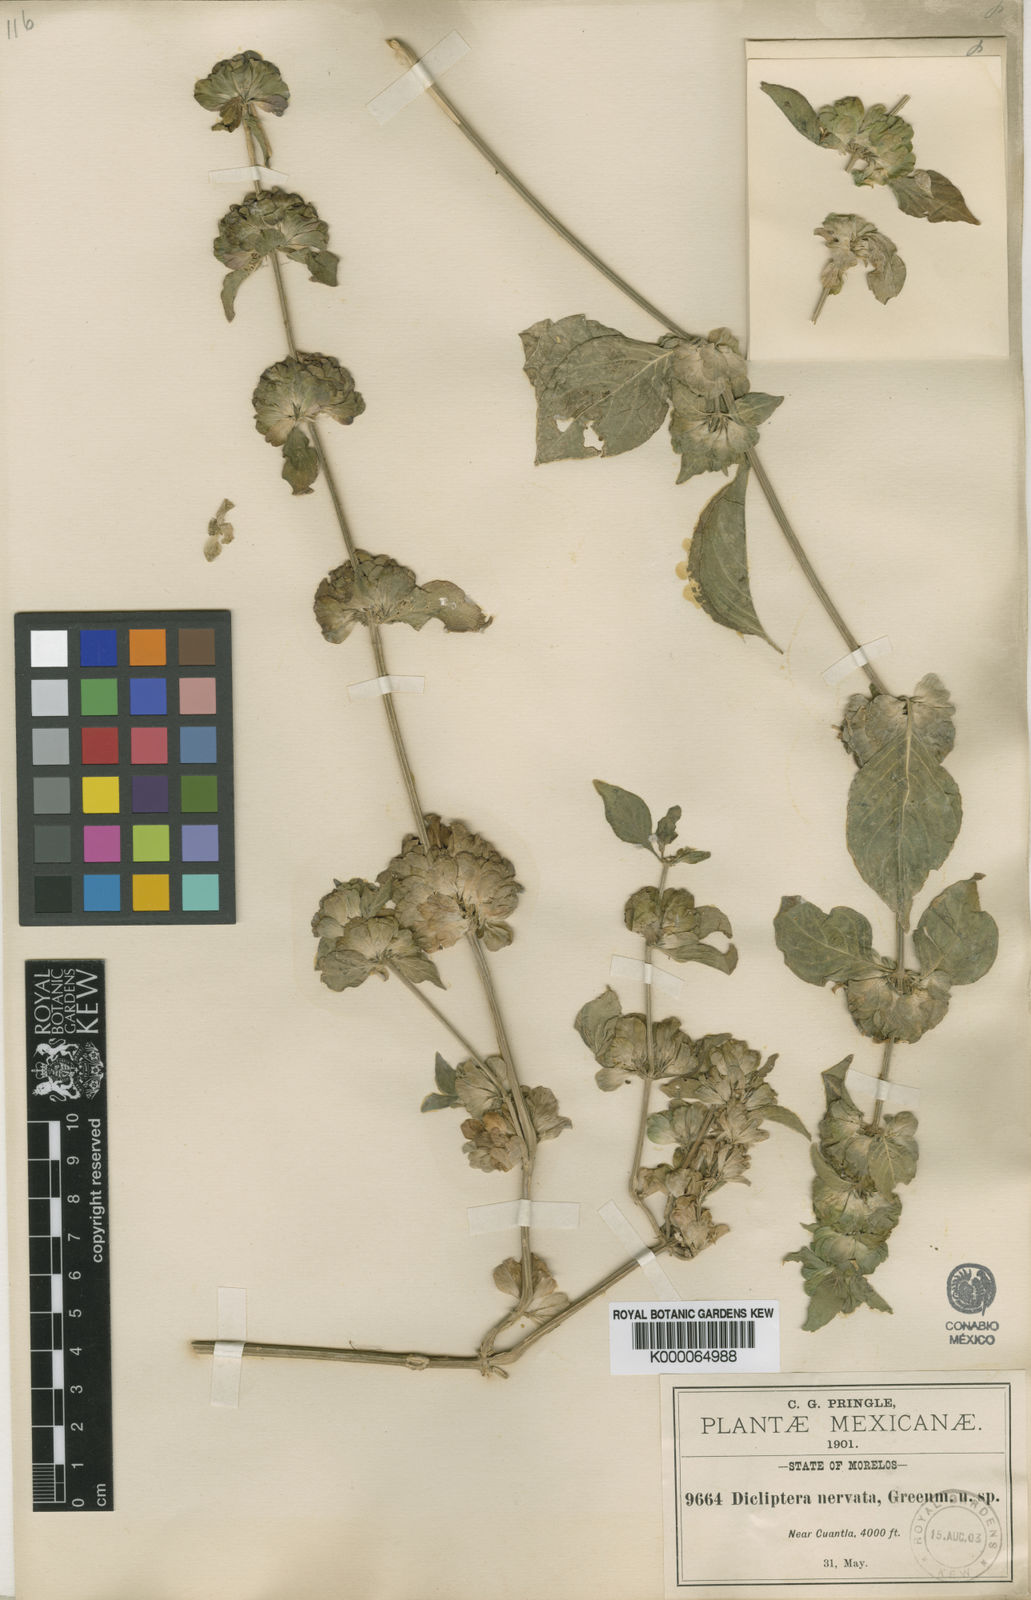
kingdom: Plantae
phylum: Tracheophyta
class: Magnoliopsida
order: Lamiales
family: Acanthaceae
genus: Dicliptera
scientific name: Dicliptera nervata
